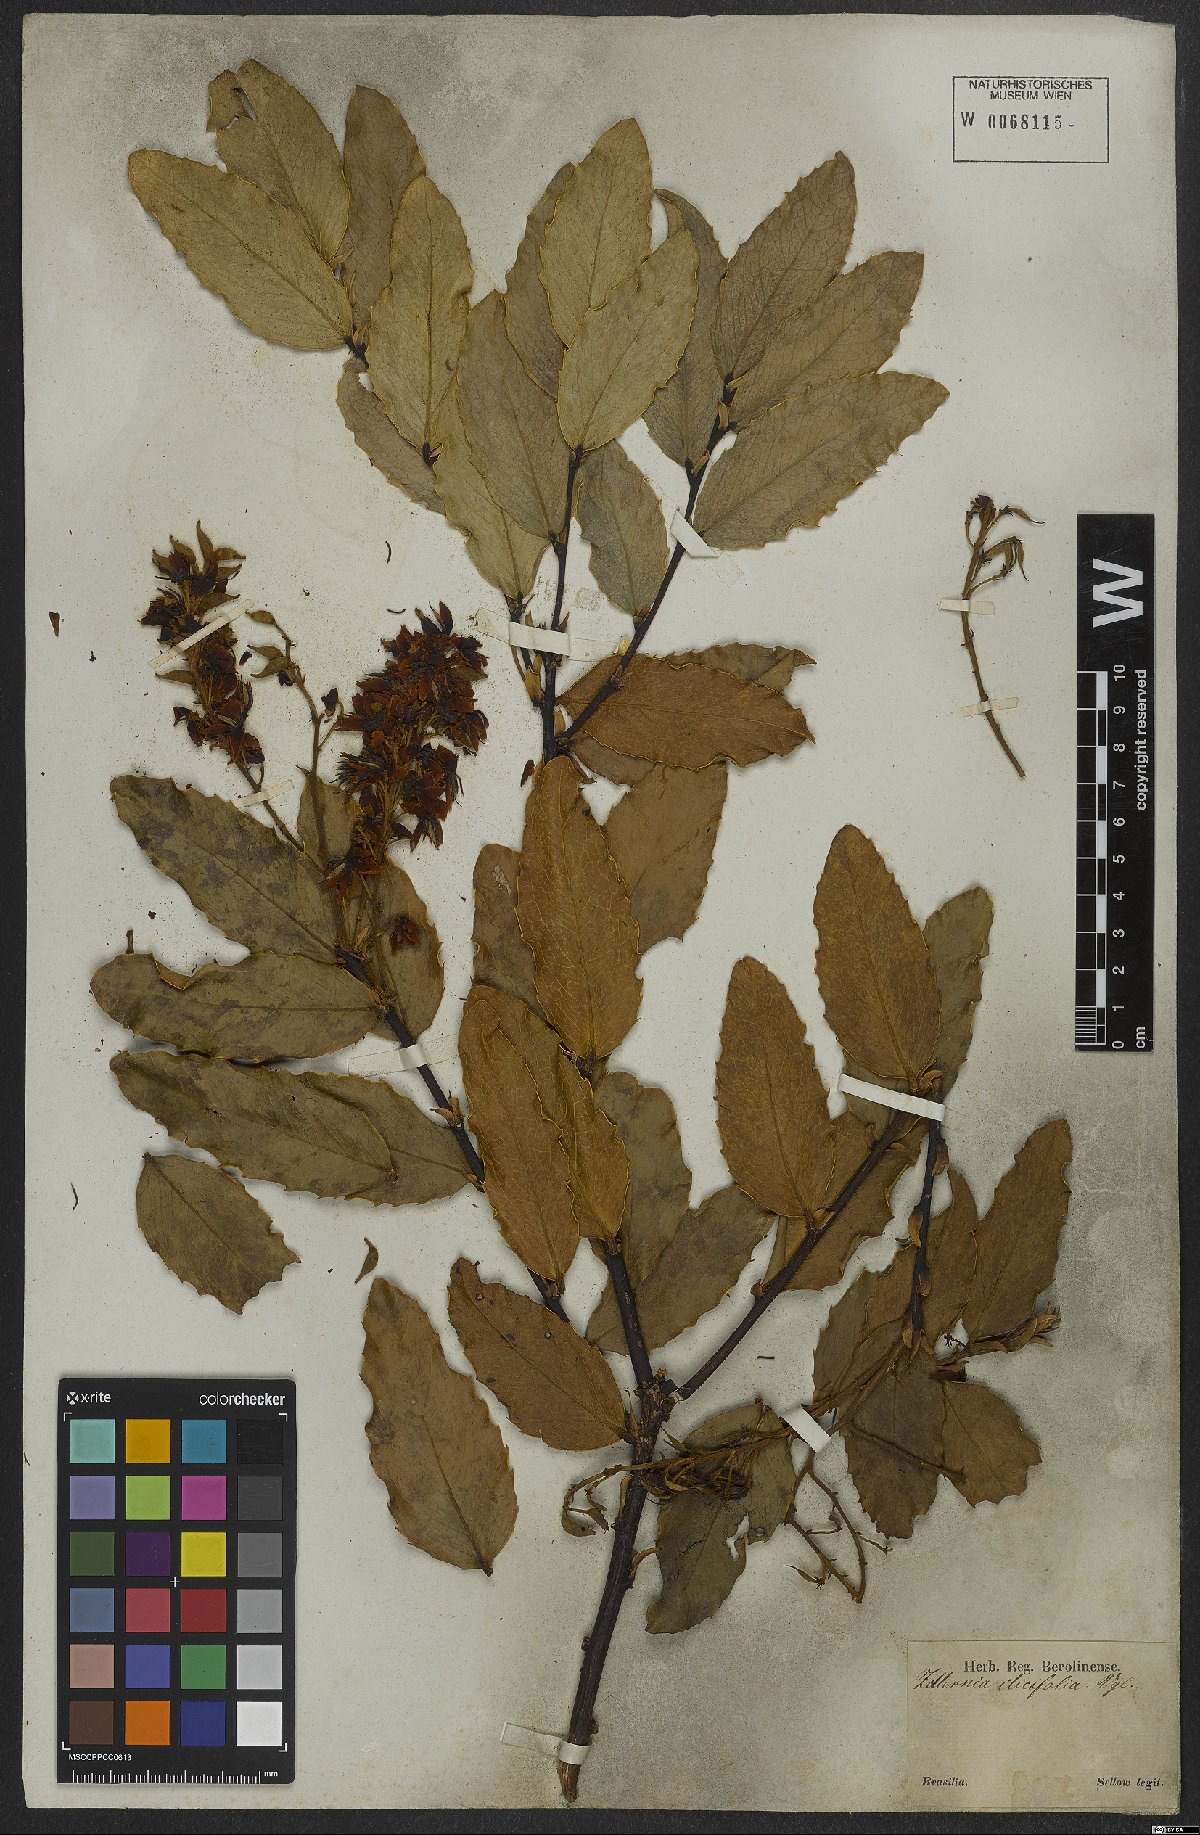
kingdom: Plantae
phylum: Tracheophyta
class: Magnoliopsida
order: Fabales
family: Fabaceae
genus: Zollernia
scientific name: Zollernia ilicifolia
